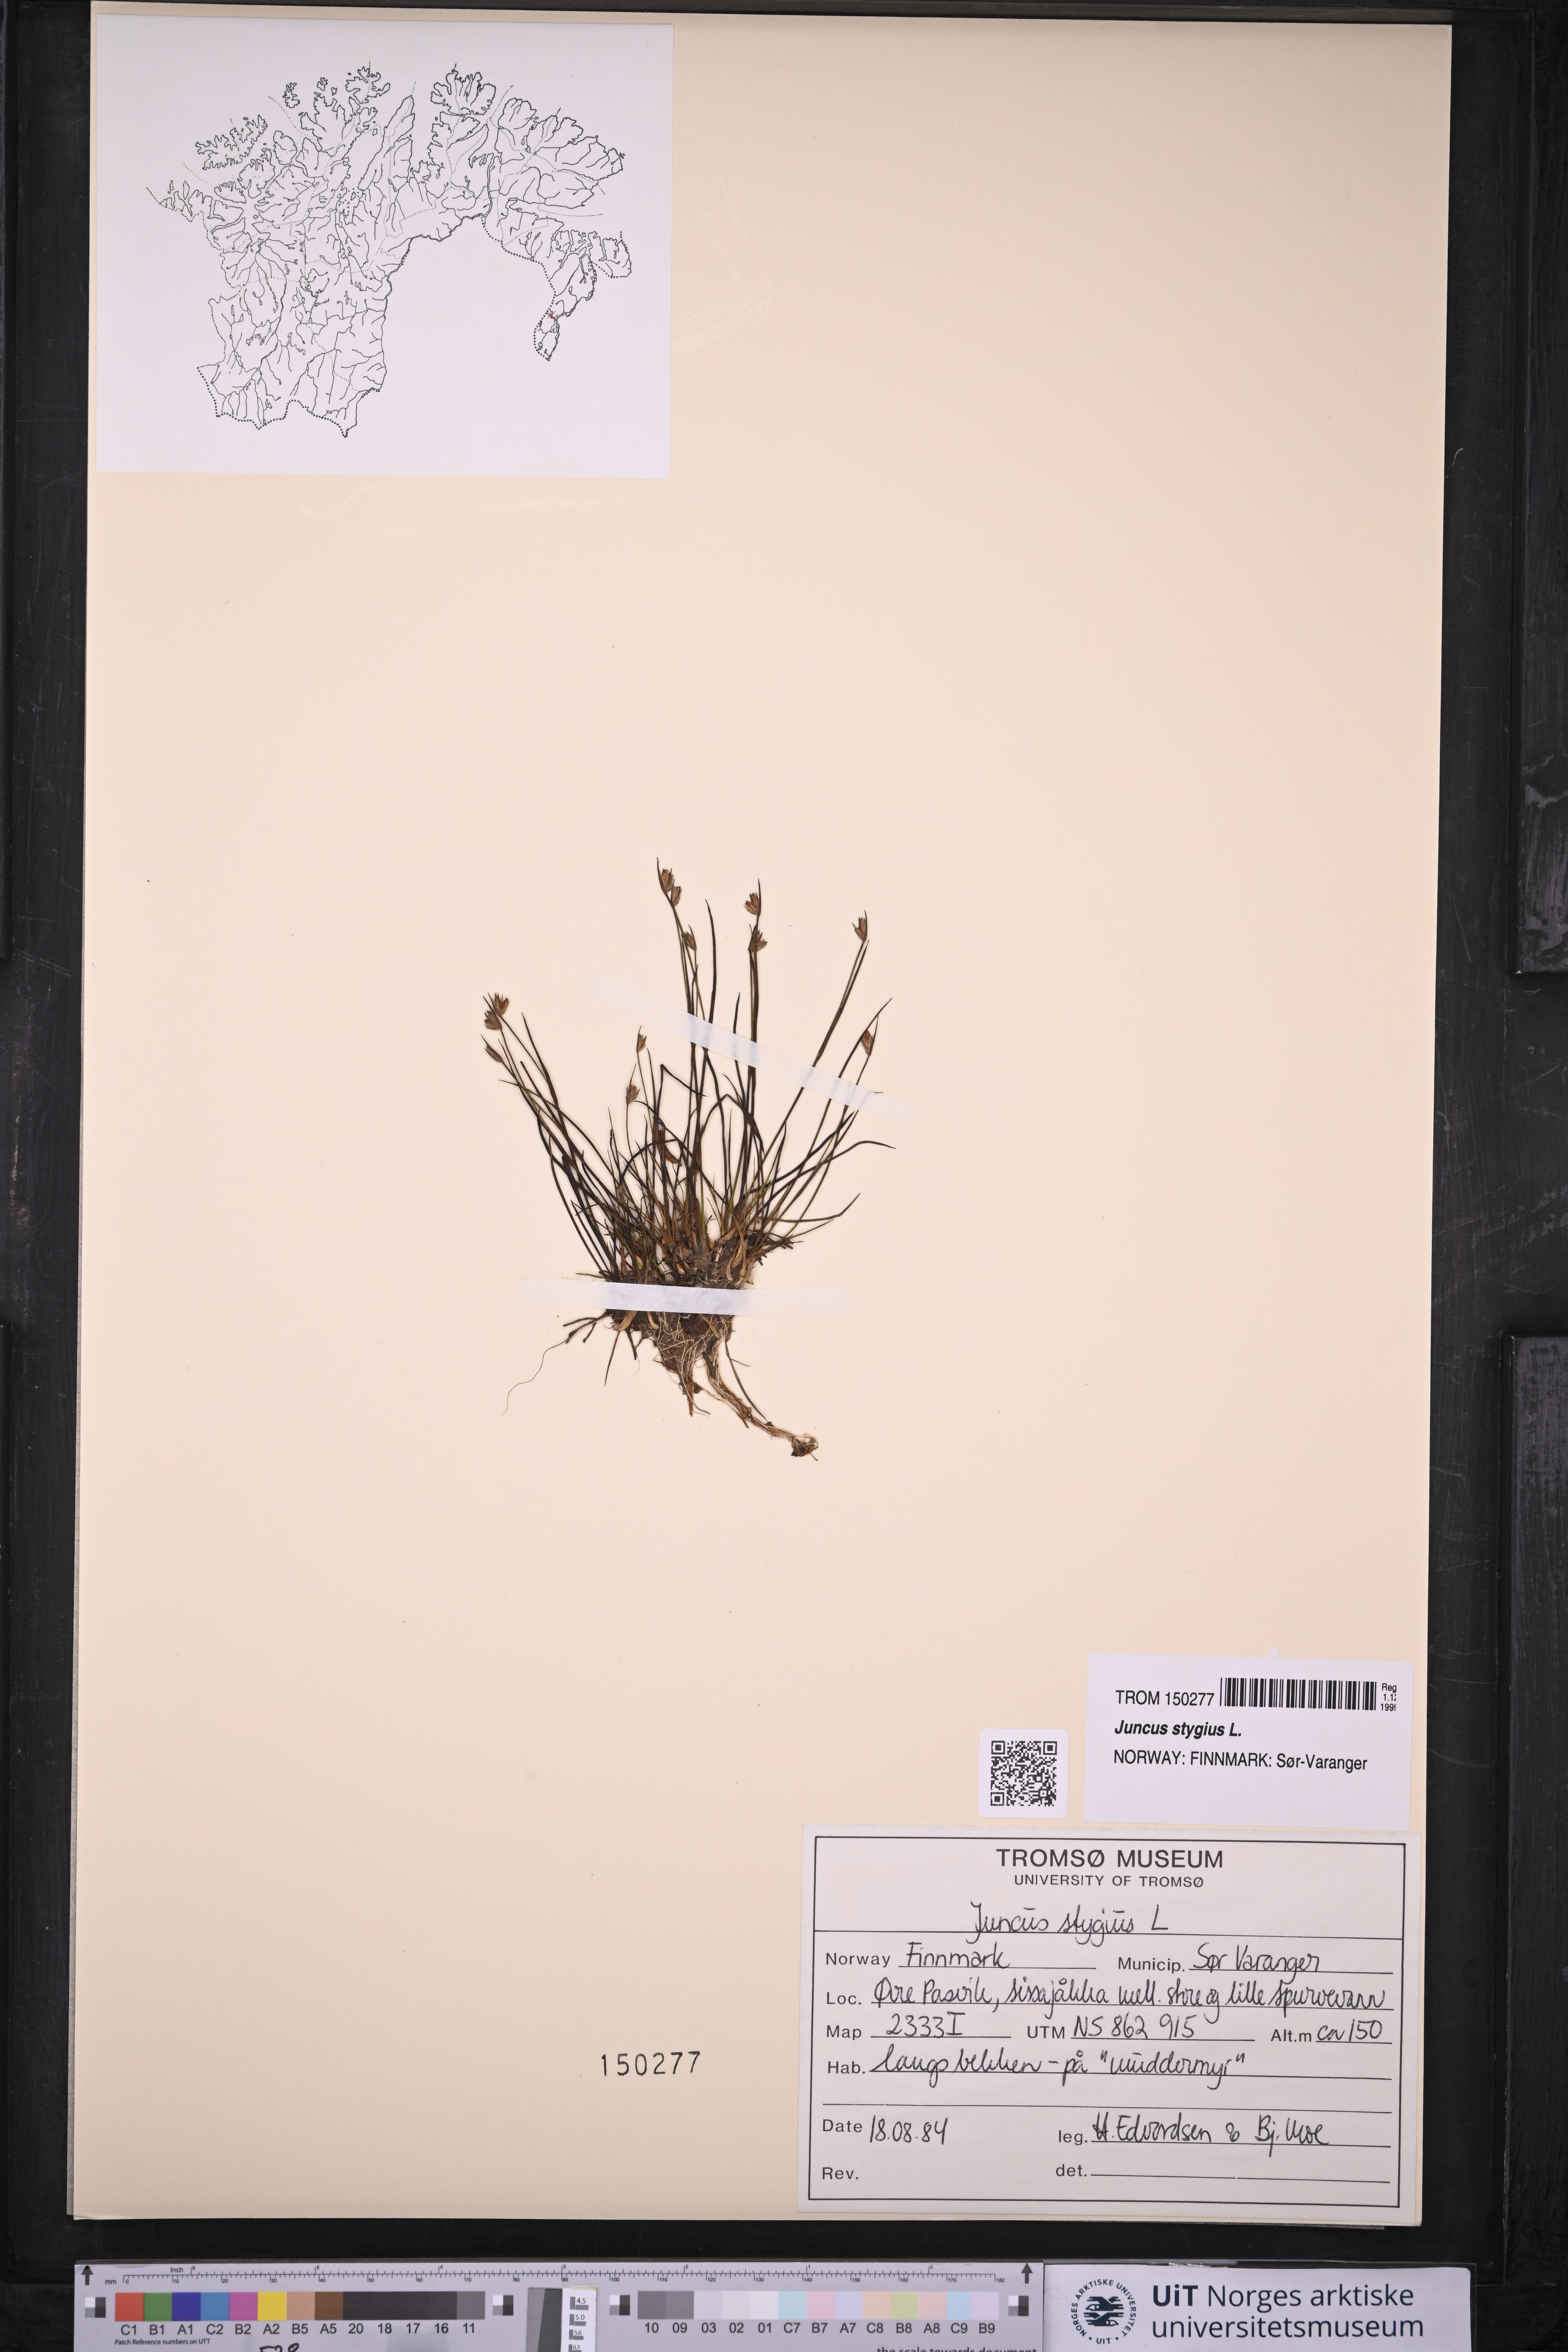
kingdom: Plantae
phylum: Tracheophyta
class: Liliopsida
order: Poales
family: Juncaceae
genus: Juncus
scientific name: Juncus stygius
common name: Bog rush
